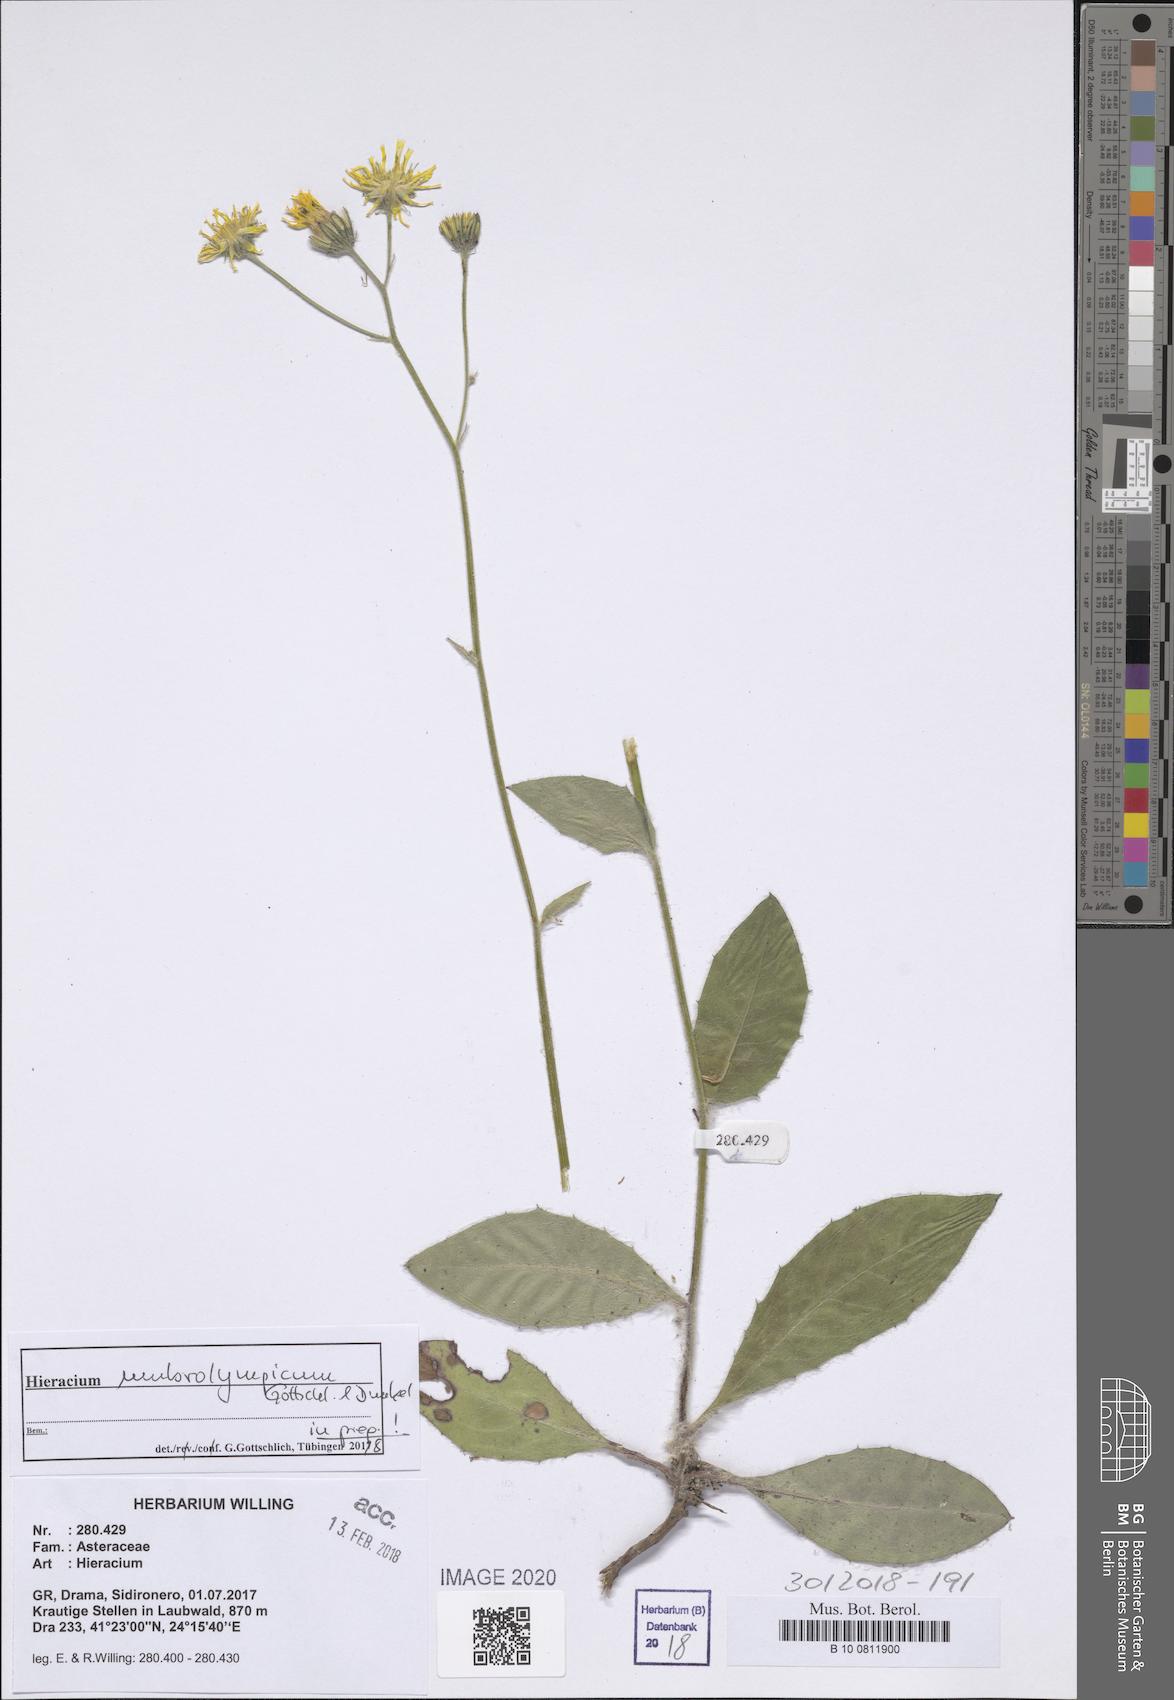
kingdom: Plantae
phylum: Tracheophyta
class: Magnoliopsida
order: Asterales
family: Asteraceae
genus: Hieracium
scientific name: Hieracium umbrolympicum
